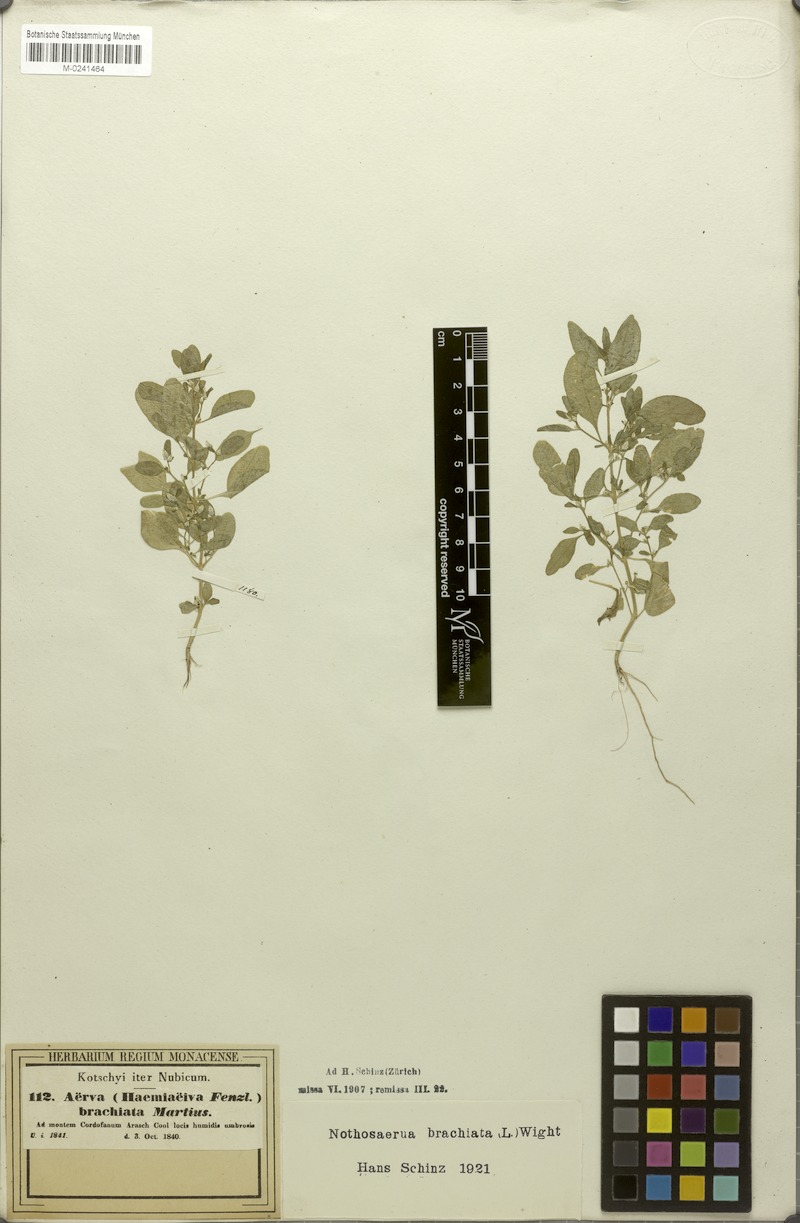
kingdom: Plantae
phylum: Tracheophyta
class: Magnoliopsida
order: Caryophyllales
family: Amaranthaceae
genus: Nothosaerva
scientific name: Nothosaerva brachiata
